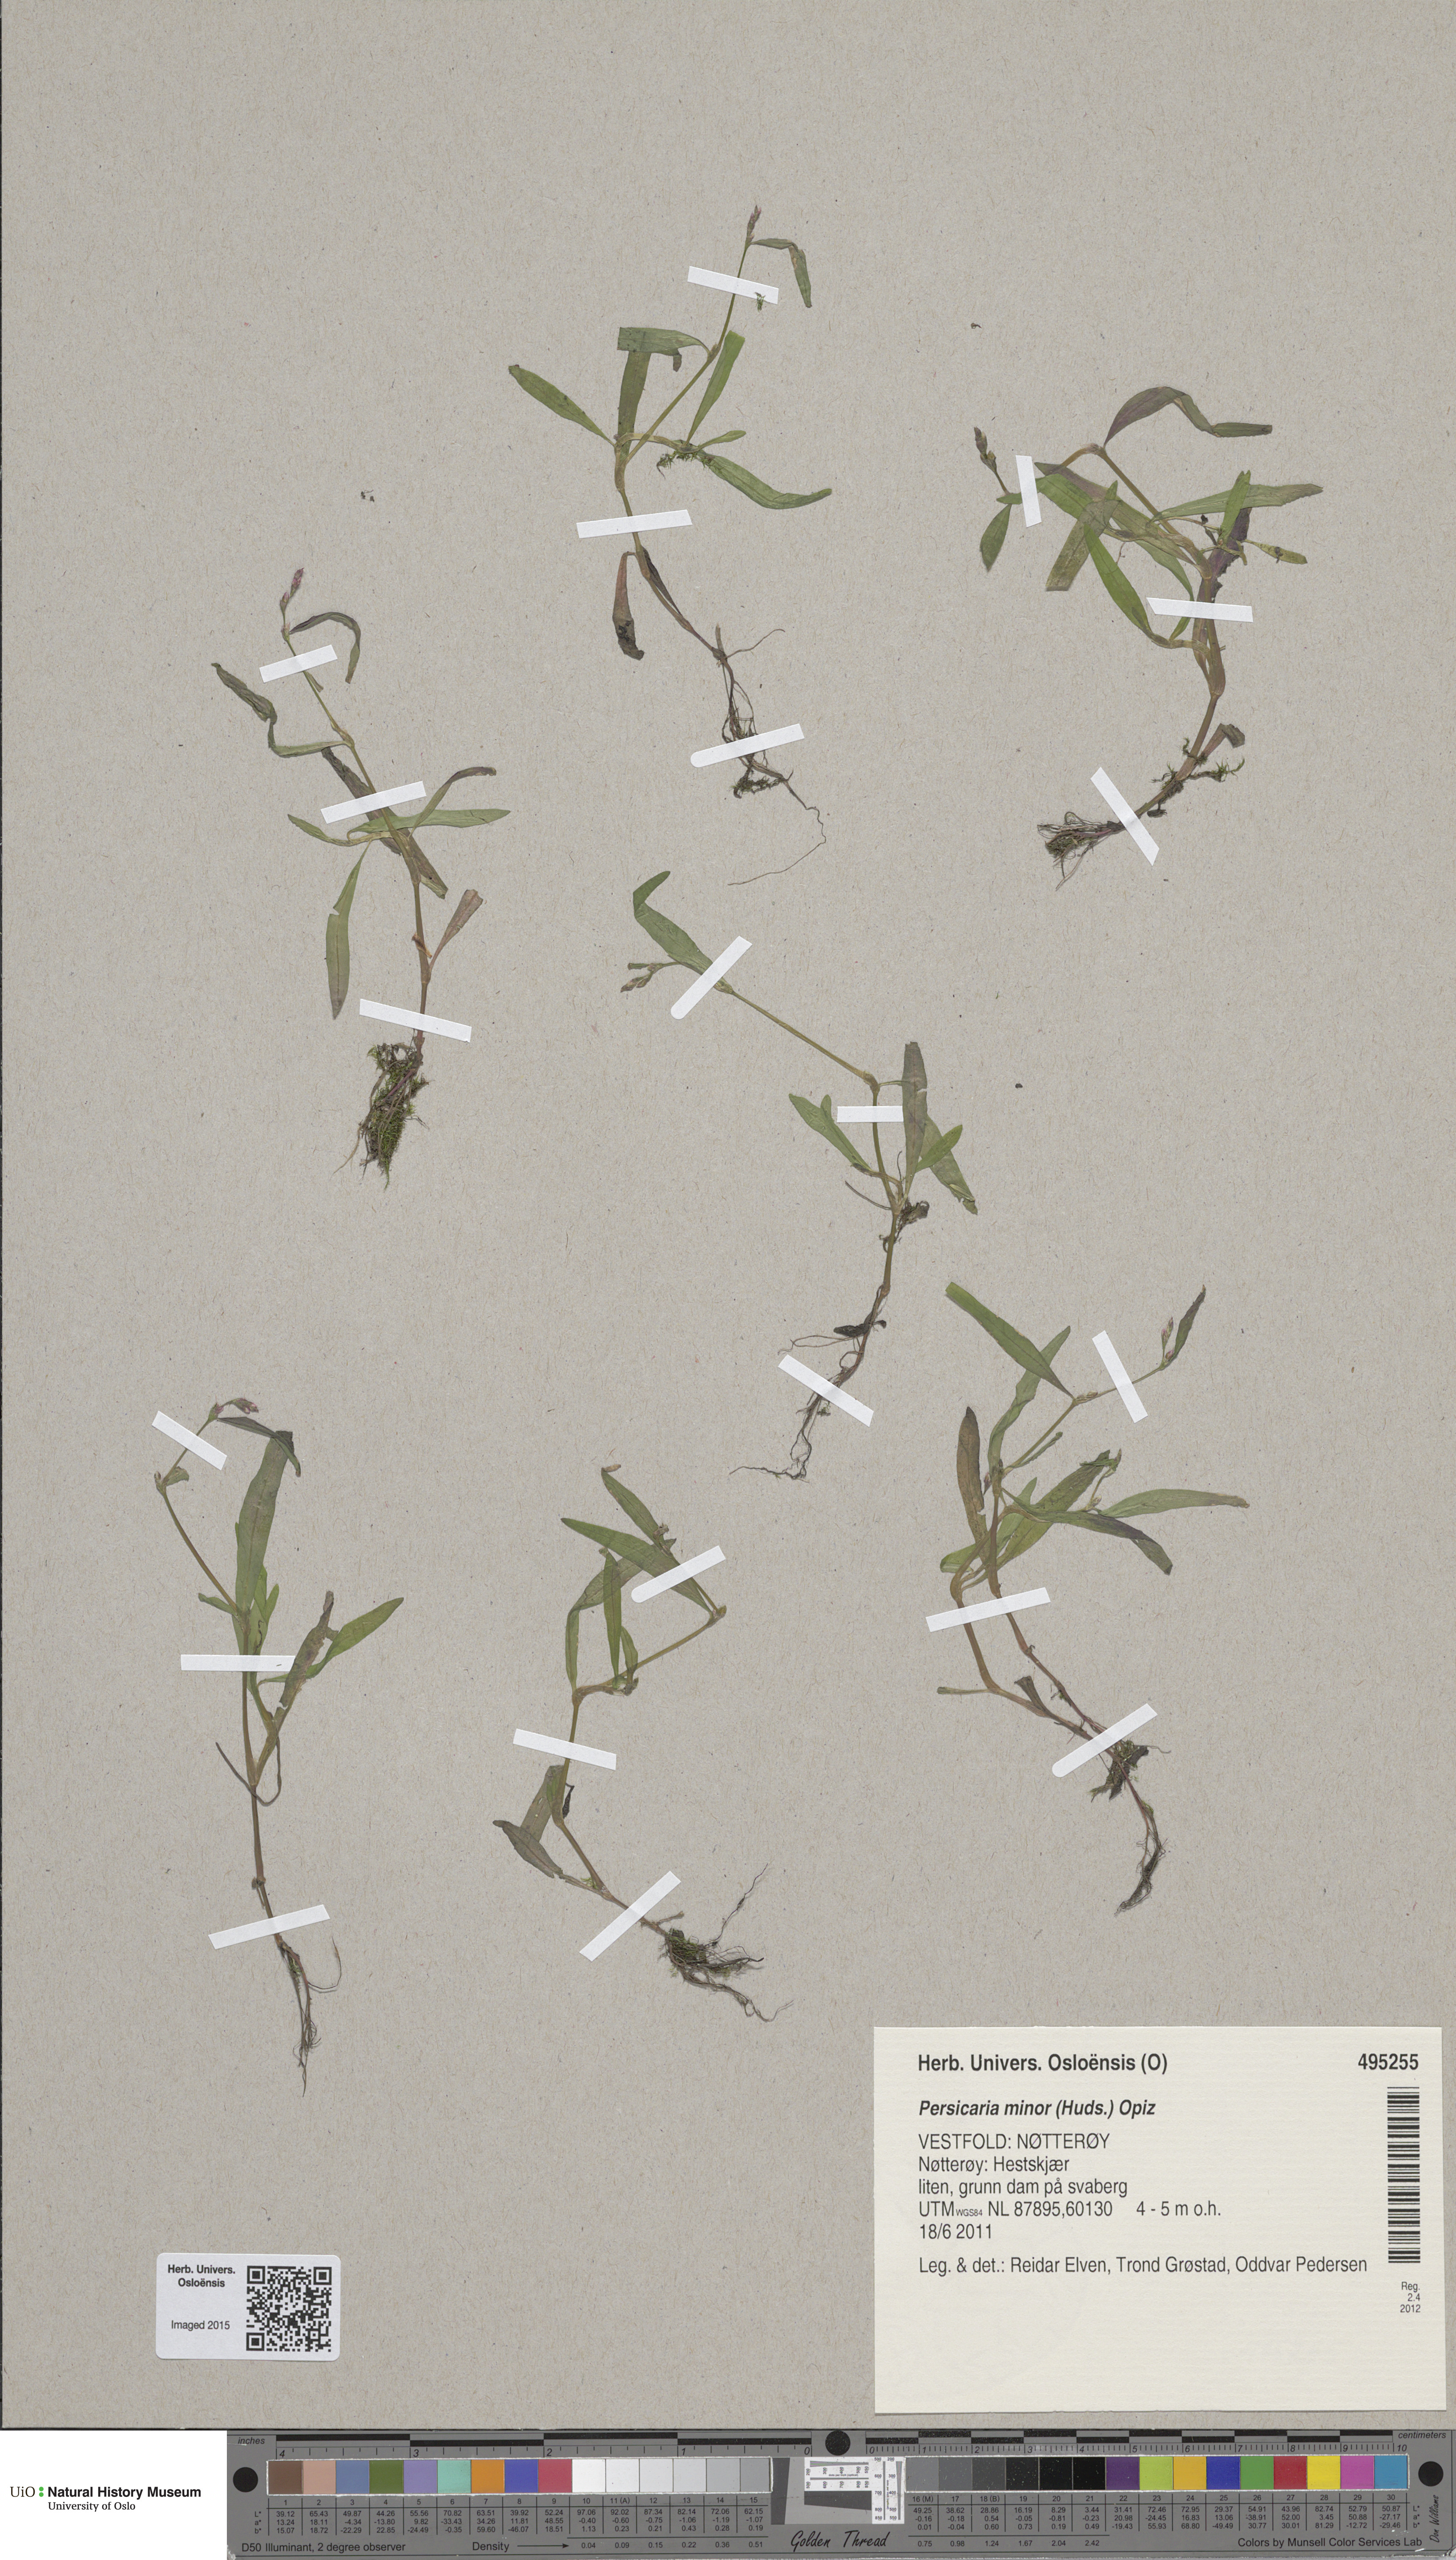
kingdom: Plantae
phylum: Tracheophyta
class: Magnoliopsida
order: Caryophyllales
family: Polygonaceae
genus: Persicaria
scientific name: Persicaria minor
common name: Small water-pepper
